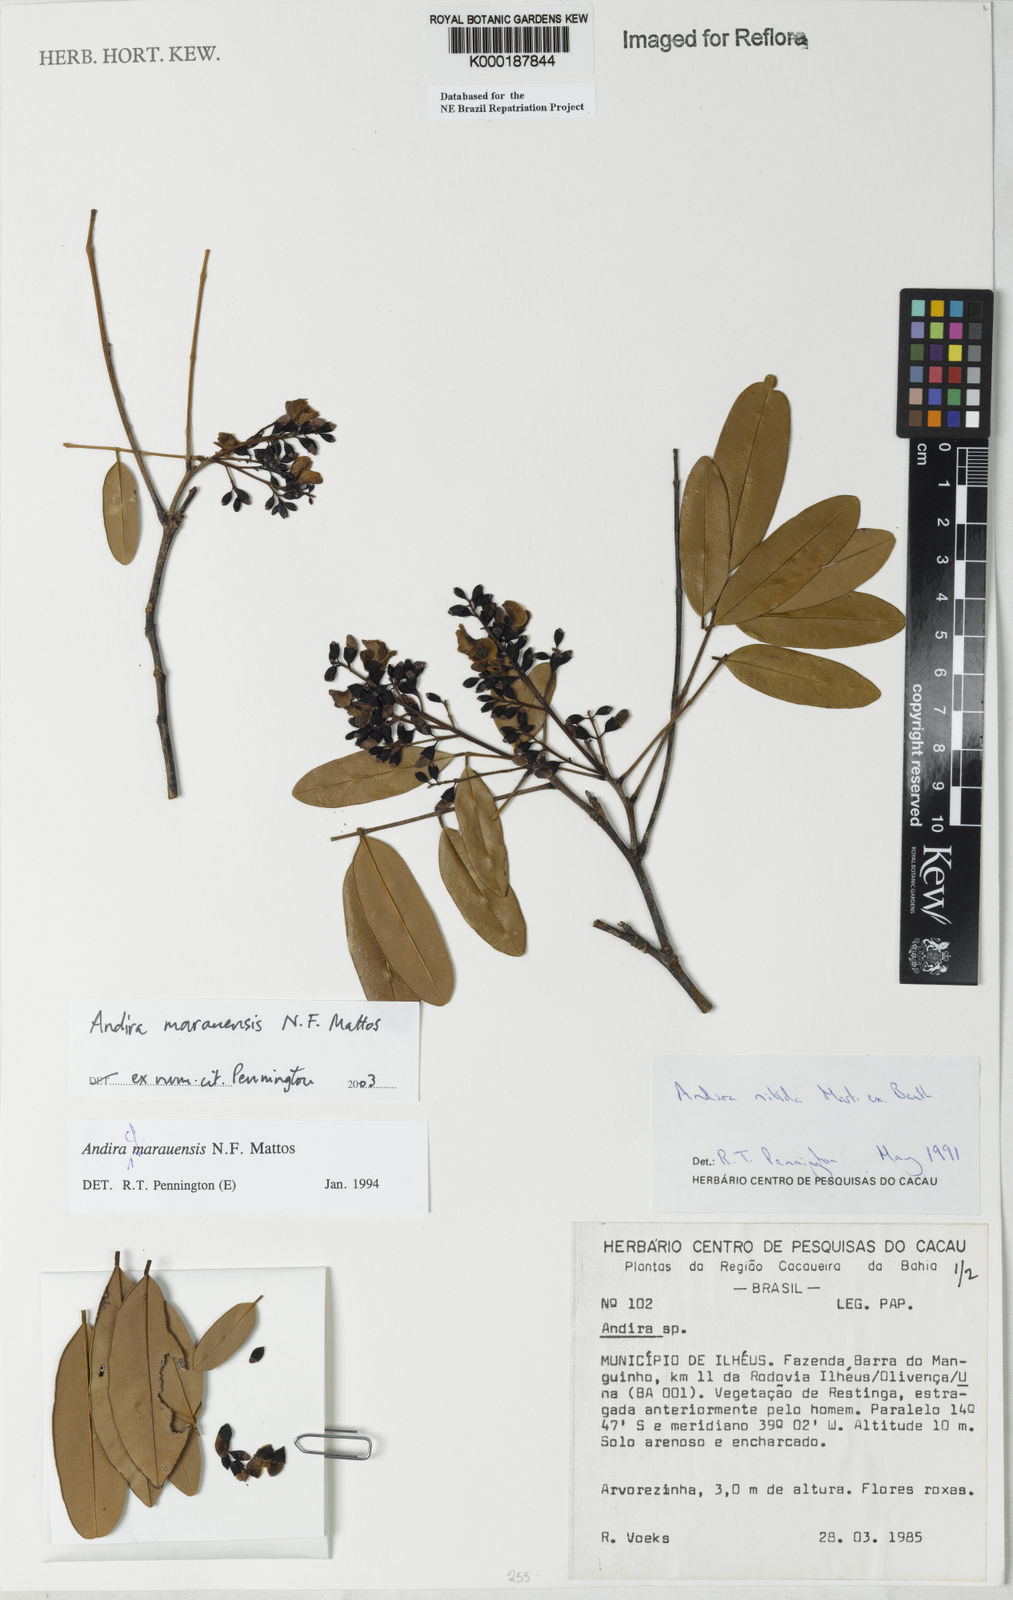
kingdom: Plantae
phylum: Tracheophyta
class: Magnoliopsida
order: Fabales
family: Fabaceae
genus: Andira
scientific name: Andira marauensis
